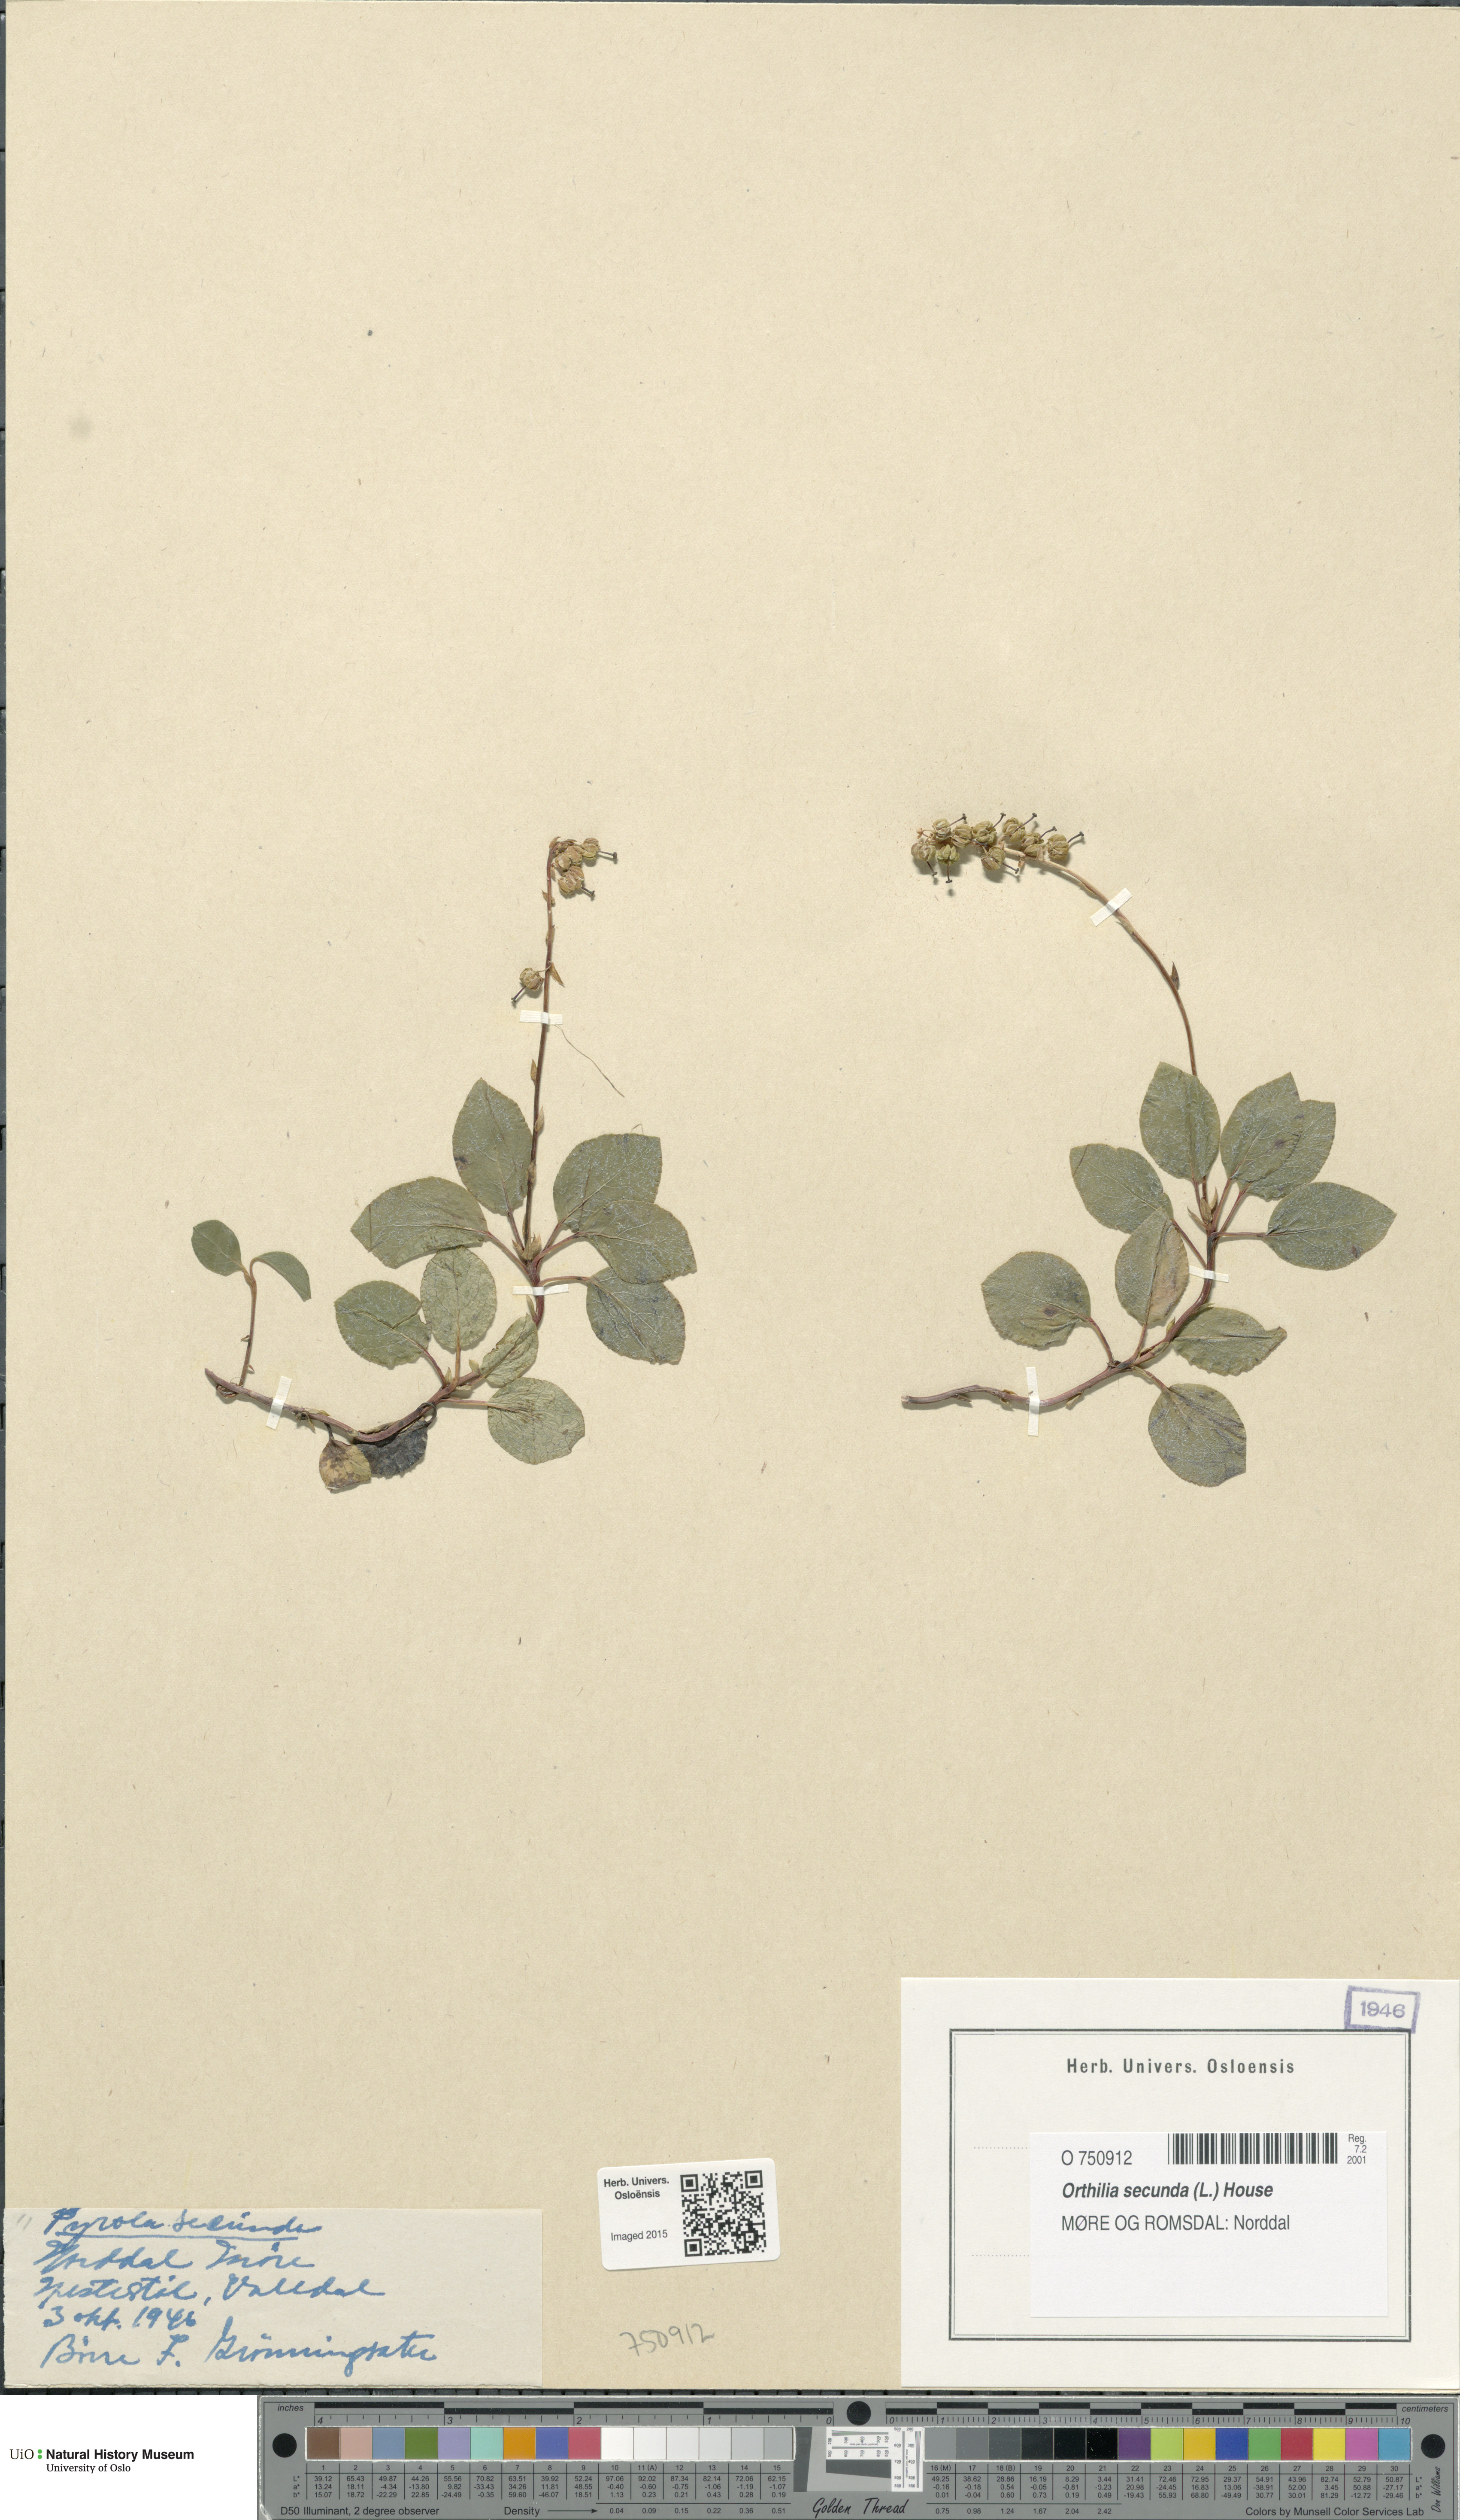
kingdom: Plantae
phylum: Tracheophyta
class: Magnoliopsida
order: Ericales
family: Ericaceae
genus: Orthilia
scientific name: Orthilia secunda
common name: One-sided orthilia
